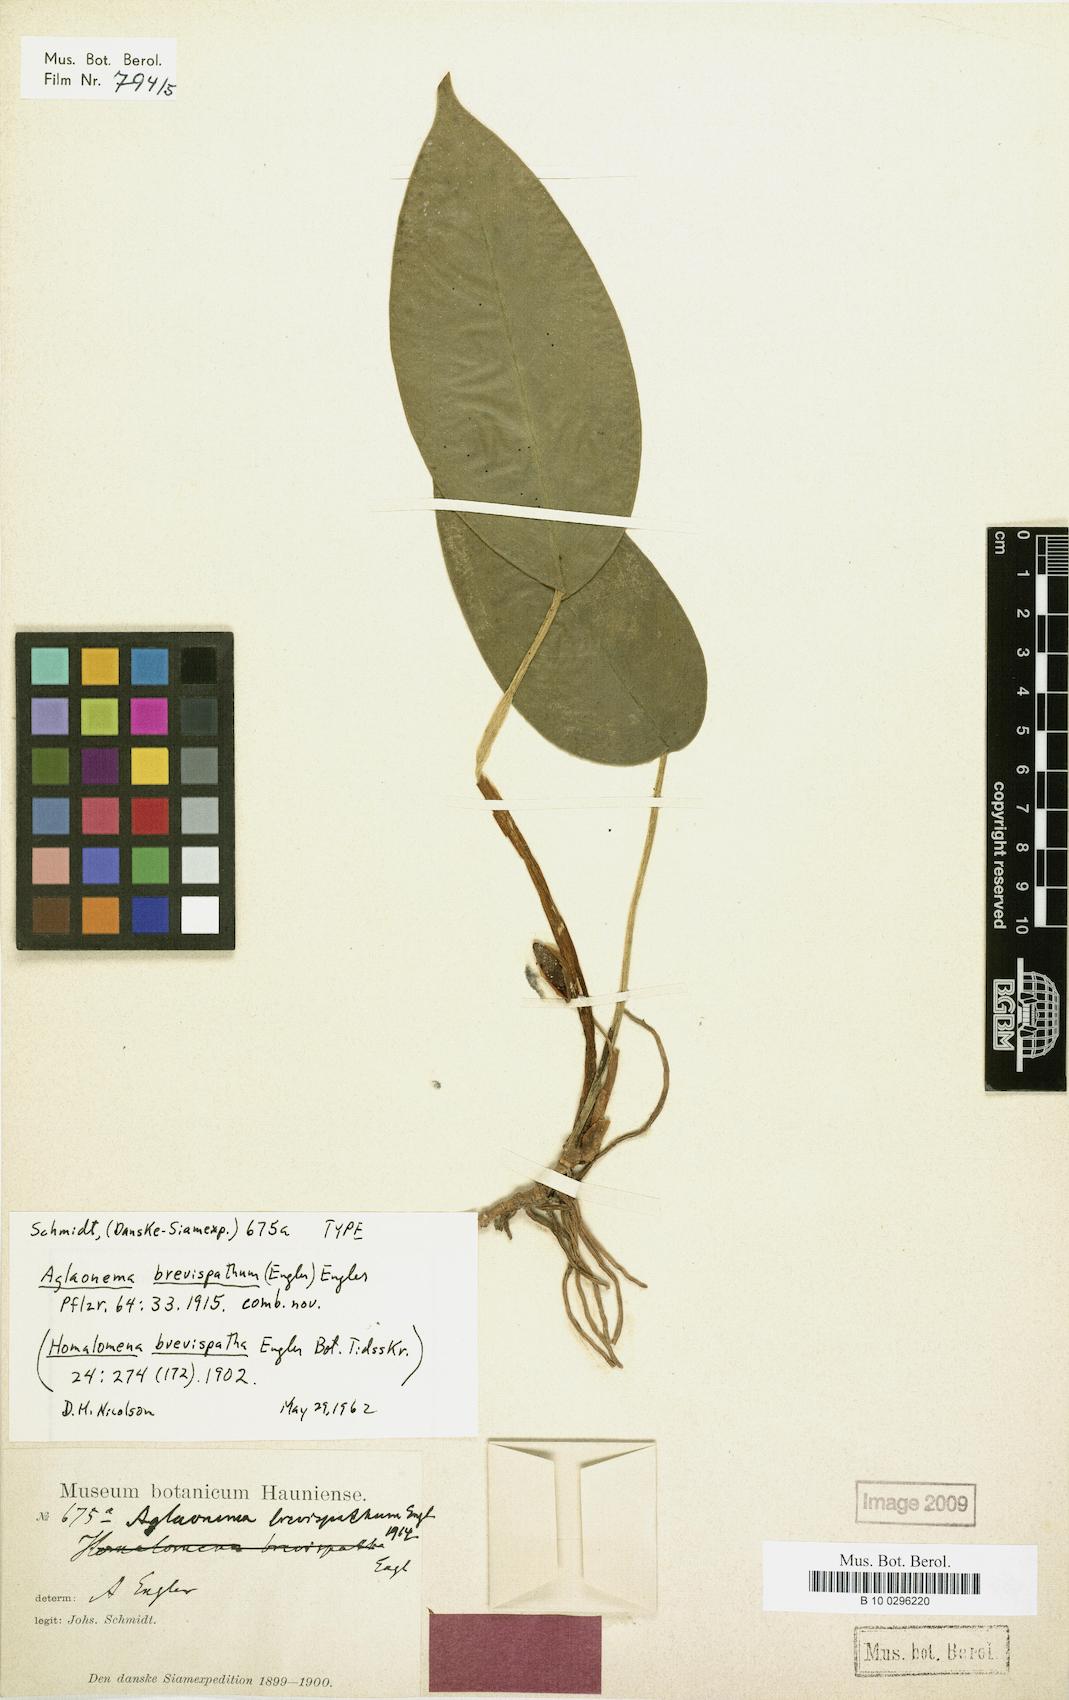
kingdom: Plantae
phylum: Tracheophyta
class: Liliopsida
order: Alismatales
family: Araceae
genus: Aglaonema
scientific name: Aglaonema brevispathum
